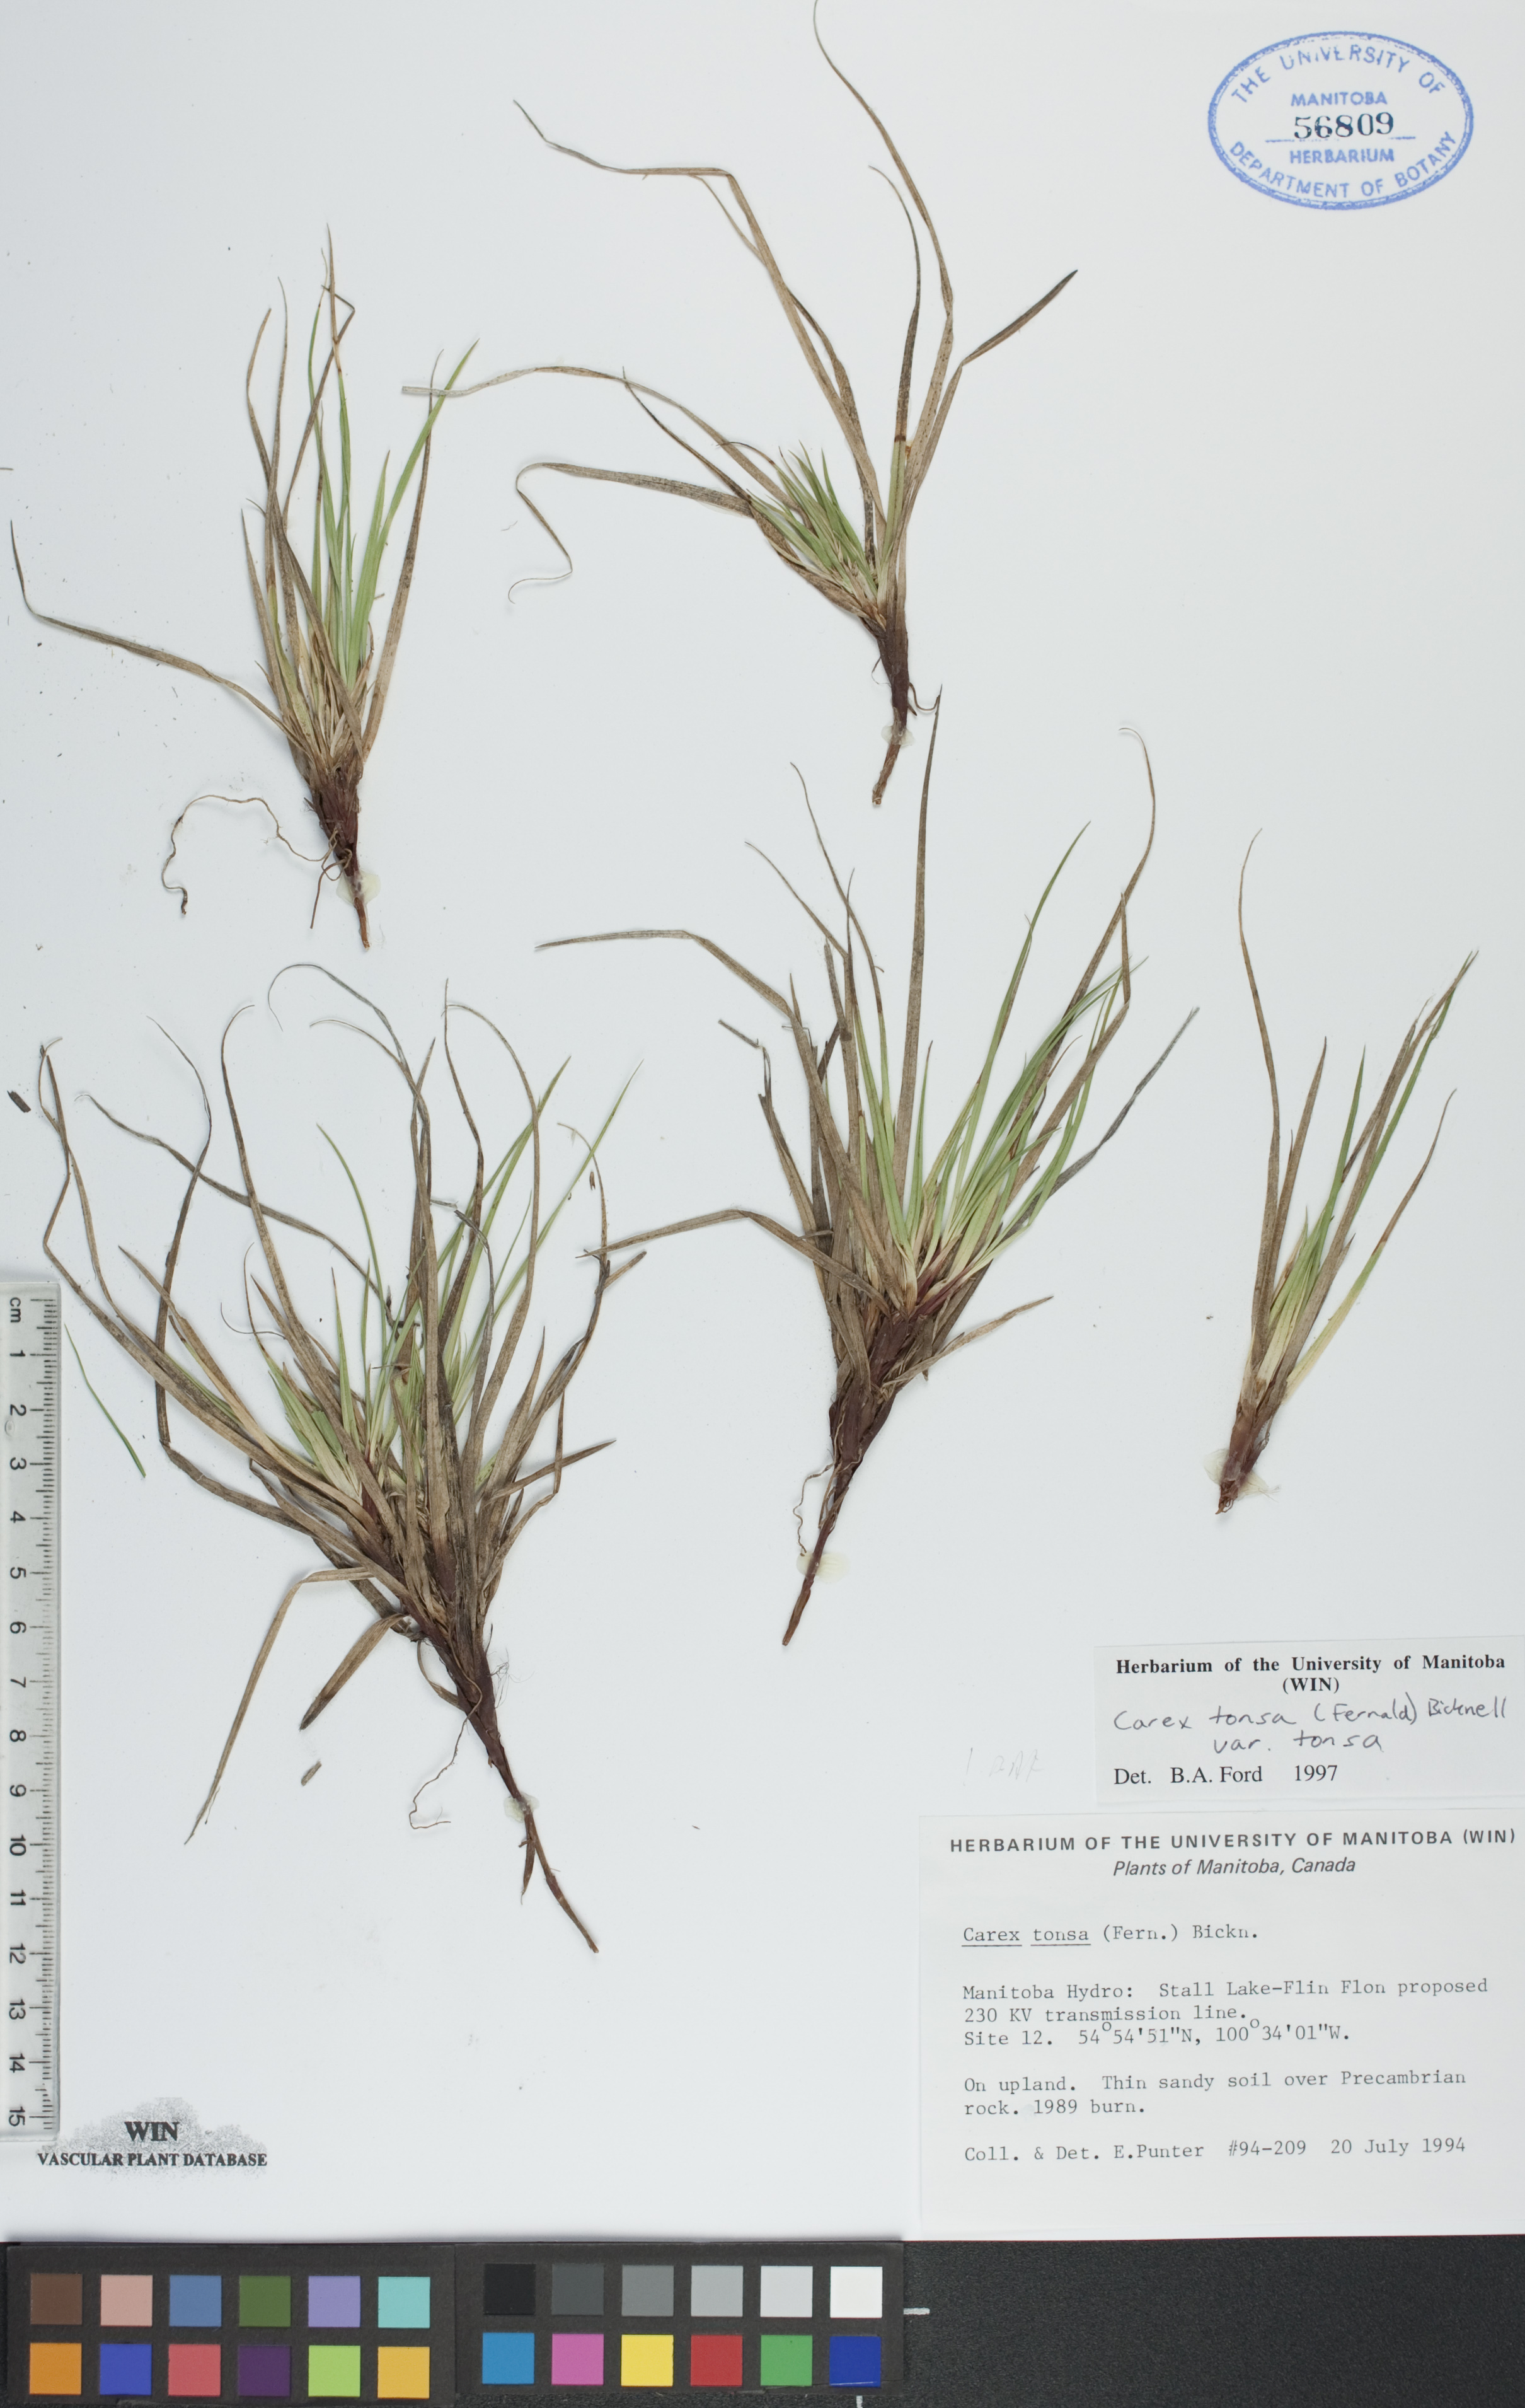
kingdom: Plantae
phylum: Tracheophyta
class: Liliopsida
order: Poales
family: Cyperaceae
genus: Carex
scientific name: Carex tonsa
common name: Bald sedge
